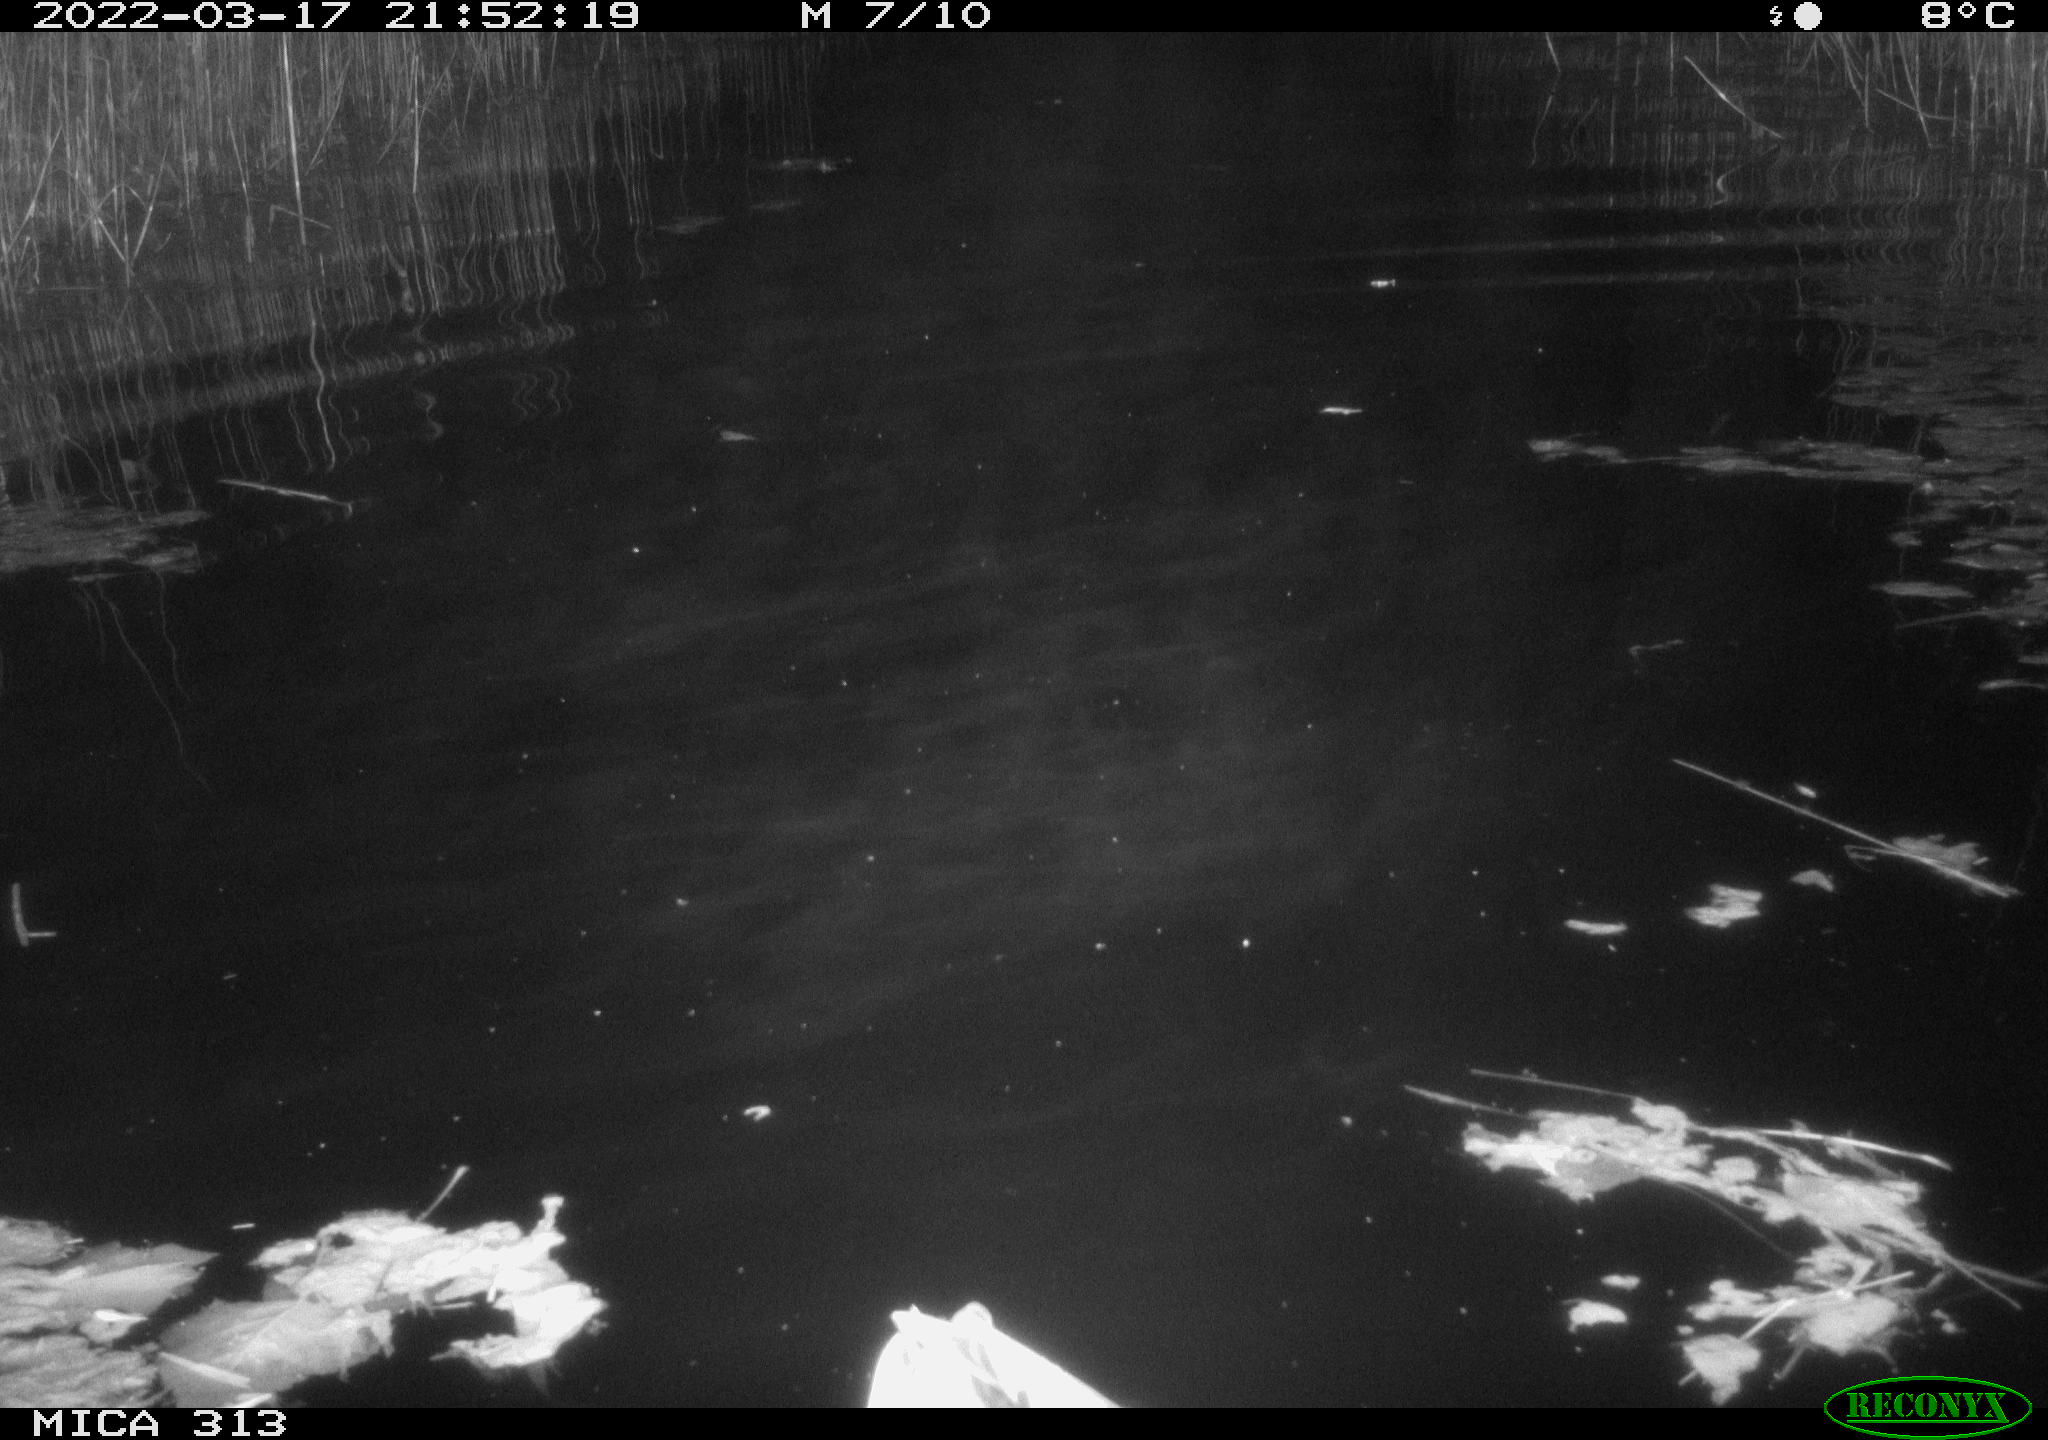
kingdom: Animalia
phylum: Chordata
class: Aves
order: Anseriformes
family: Anatidae
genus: Anas
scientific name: Anas platyrhynchos
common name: Mallard
